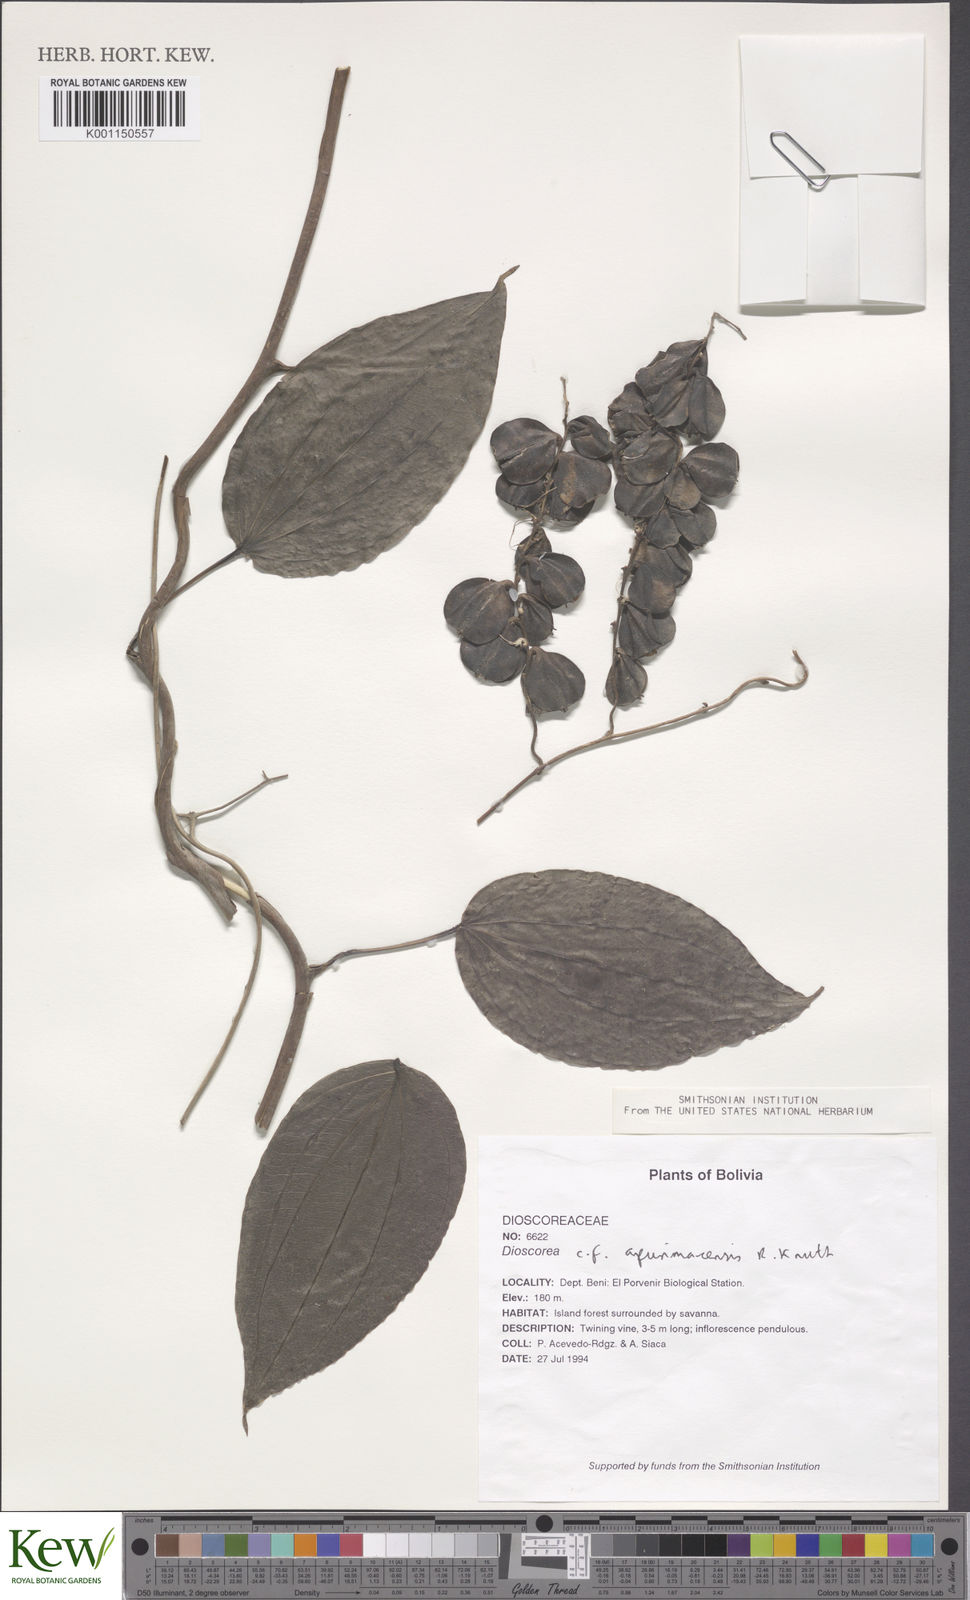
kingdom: Plantae
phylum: Tracheophyta
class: Liliopsida
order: Dioscoreales
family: Dioscoreaceae
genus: Dioscorea
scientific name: Dioscorea acanthogene
